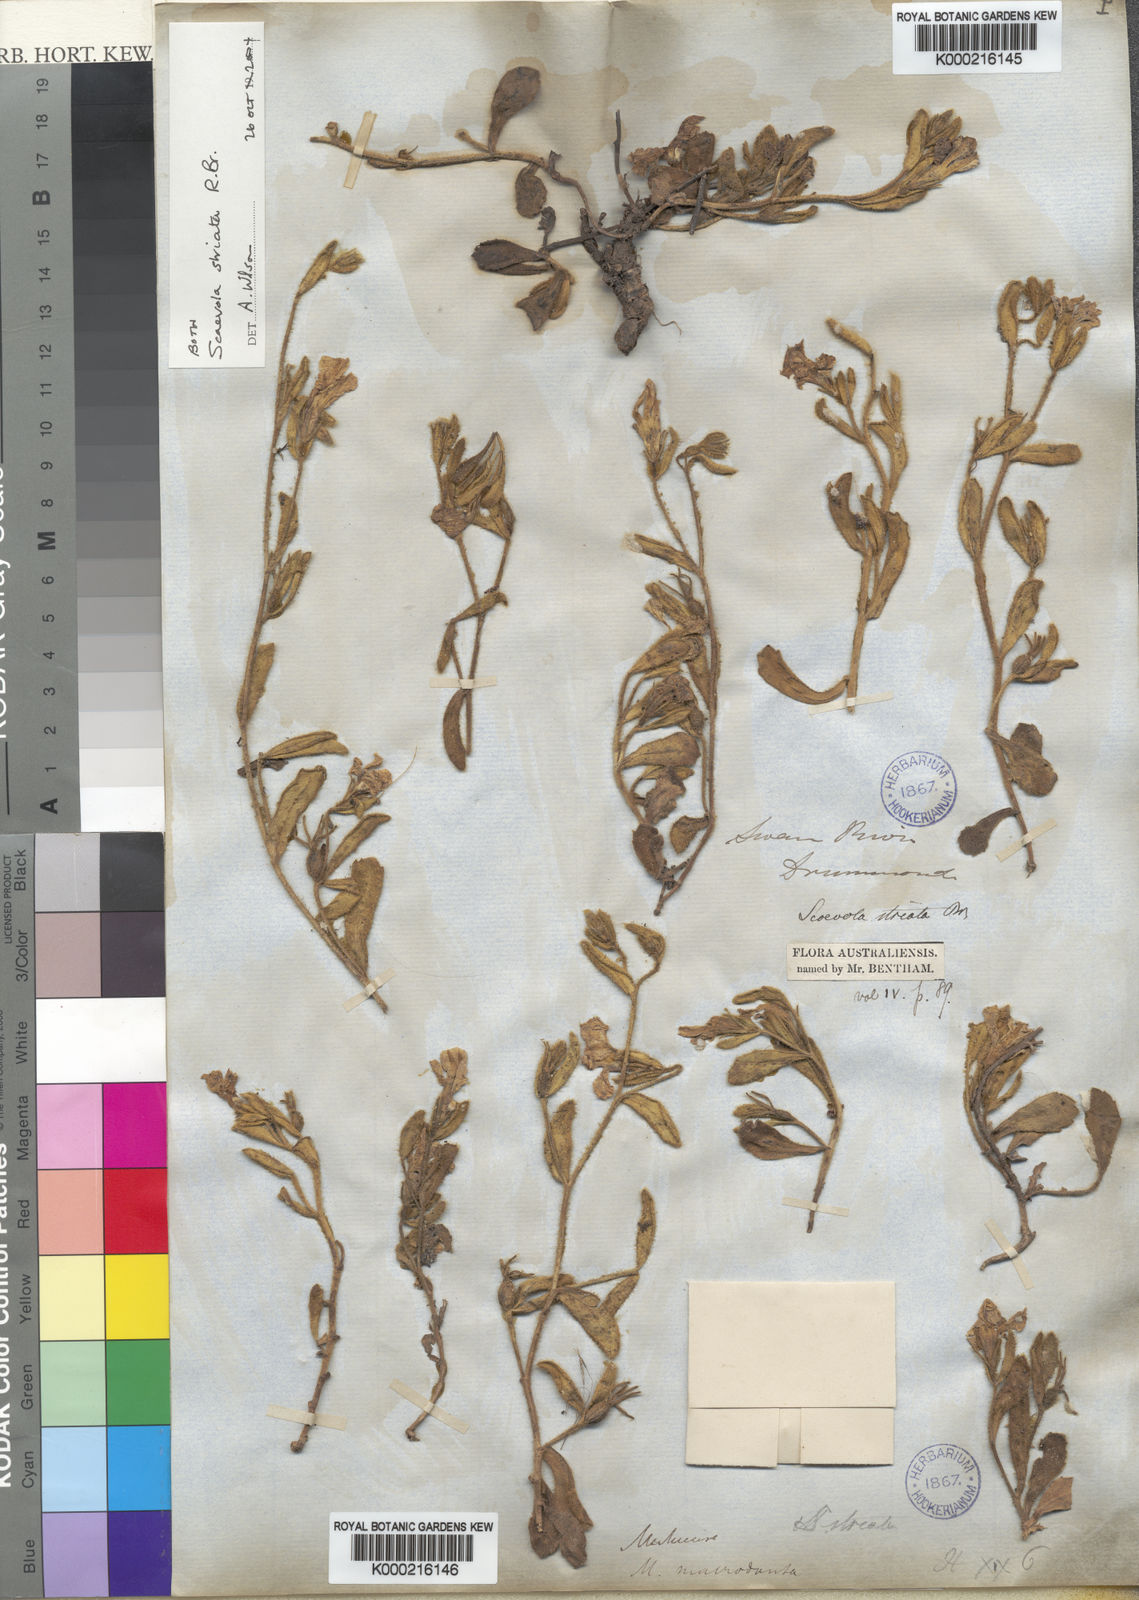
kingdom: Plantae
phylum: Tracheophyta
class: Magnoliopsida
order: Asterales
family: Goodeniaceae
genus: Scaevola
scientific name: Scaevola striata
